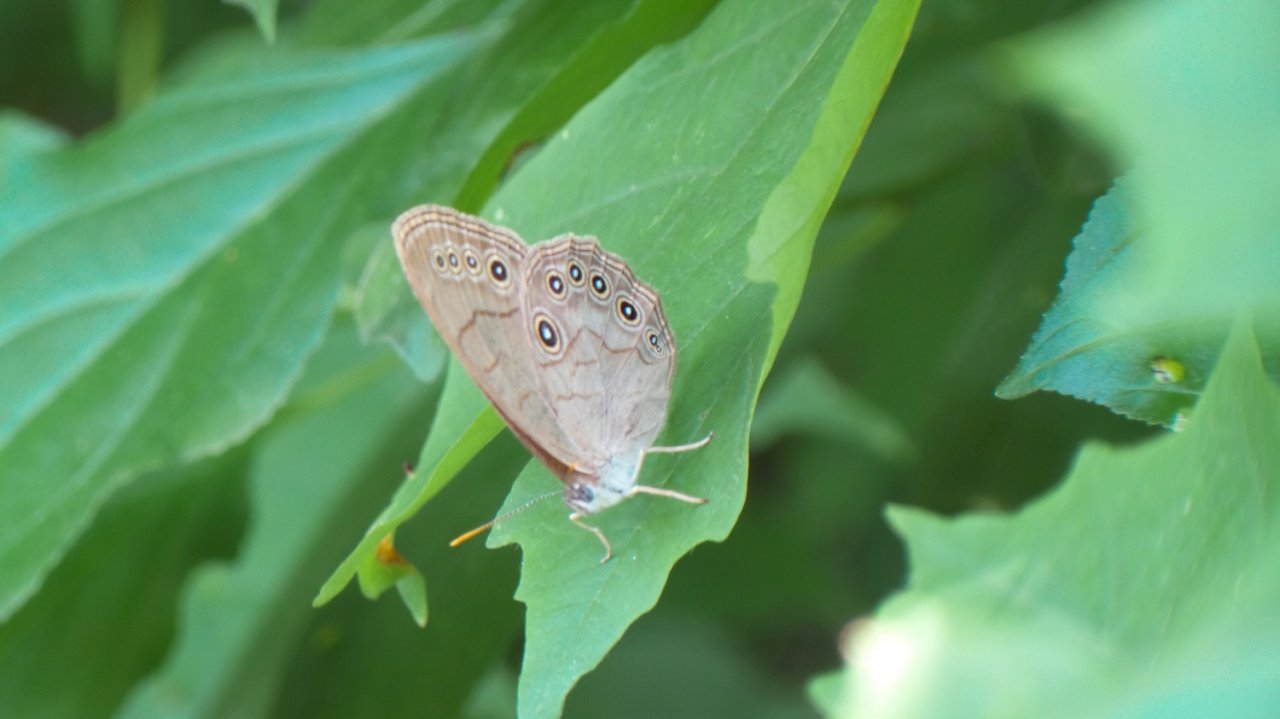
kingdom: Animalia
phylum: Arthropoda
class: Insecta
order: Lepidoptera
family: Nymphalidae
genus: Lethe
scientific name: Lethe eurydice
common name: Appalachian Eyed Brown
